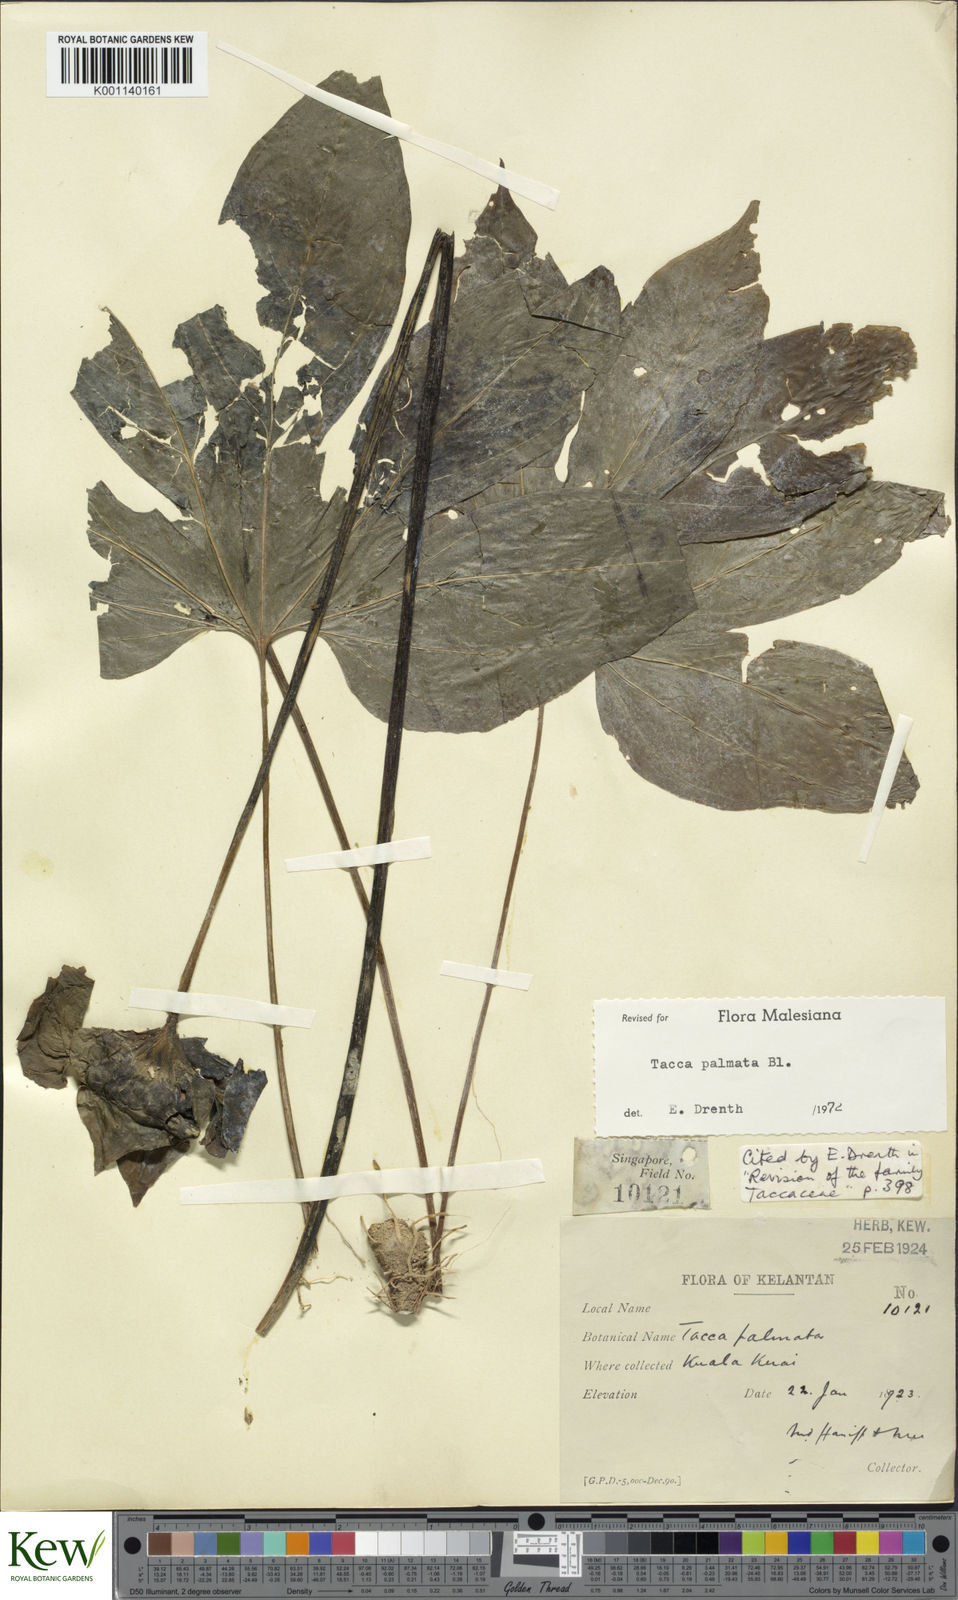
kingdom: Plantae
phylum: Tracheophyta
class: Liliopsida
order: Dioscoreales
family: Dioscoreaceae
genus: Tacca
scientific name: Tacca palmata
